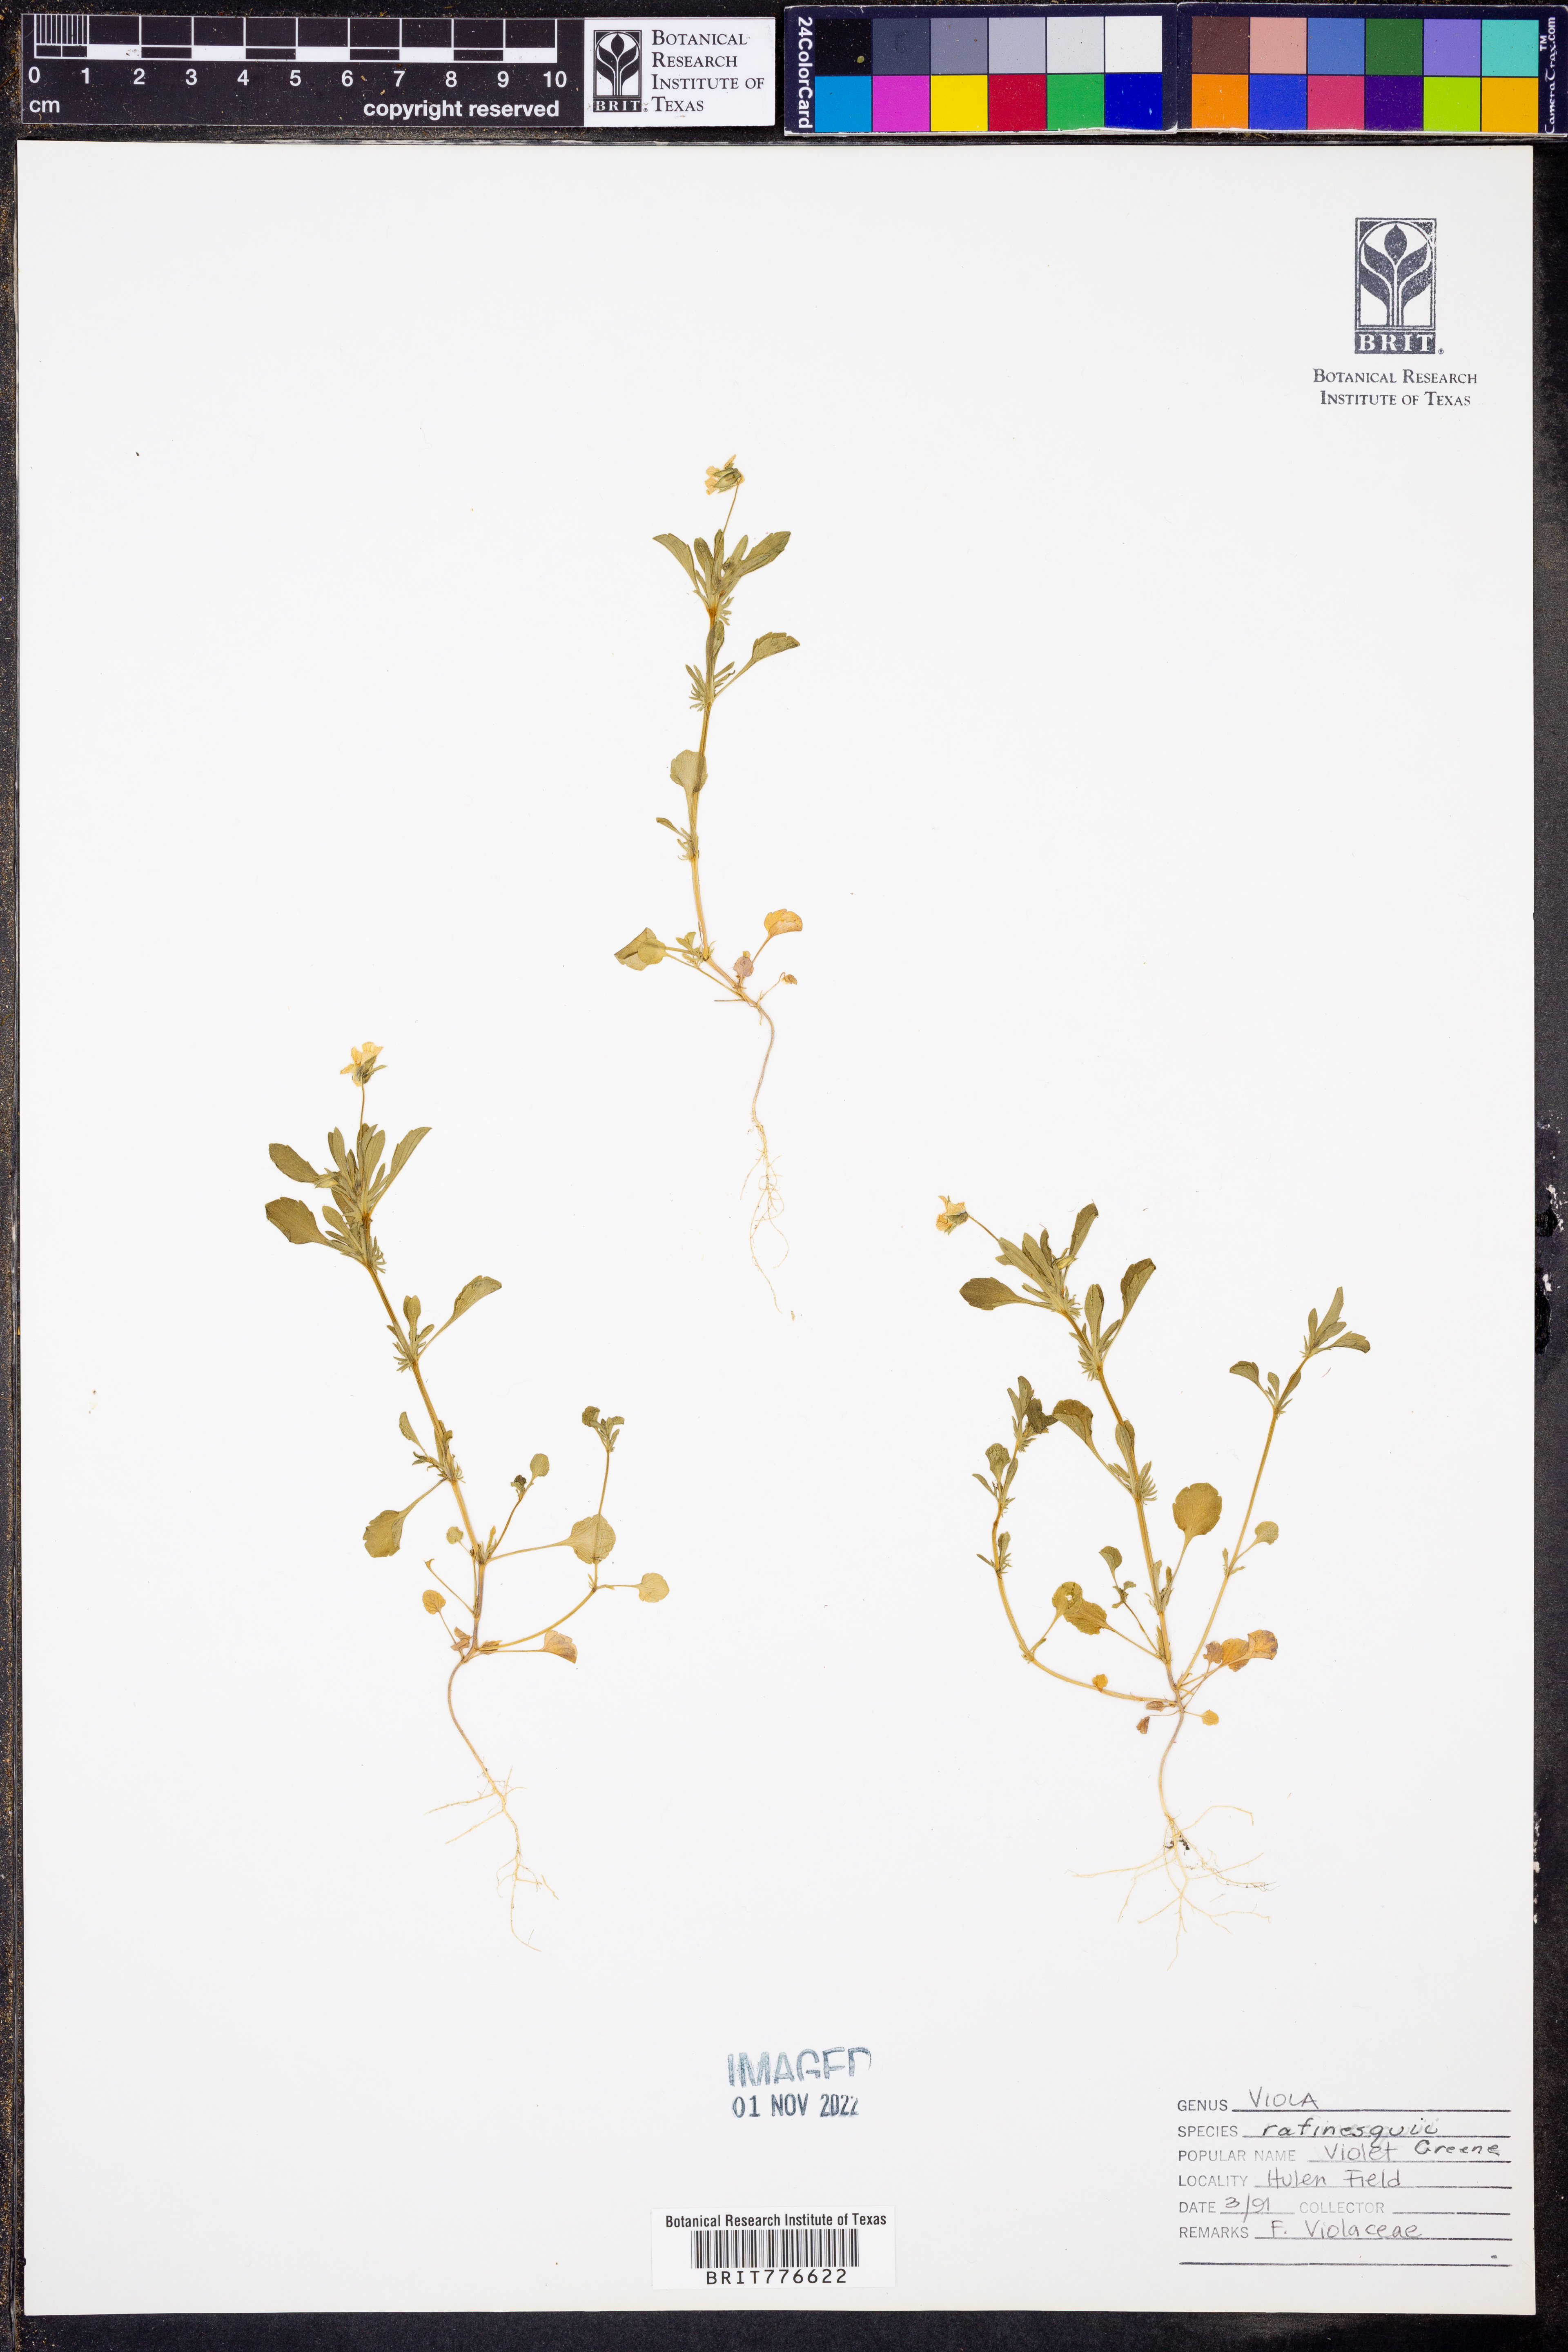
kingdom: Plantae
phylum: Tracheophyta
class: Magnoliopsida
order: Malpighiales
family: Violaceae
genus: Viola
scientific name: Viola rafinesquei
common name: American field pansy
